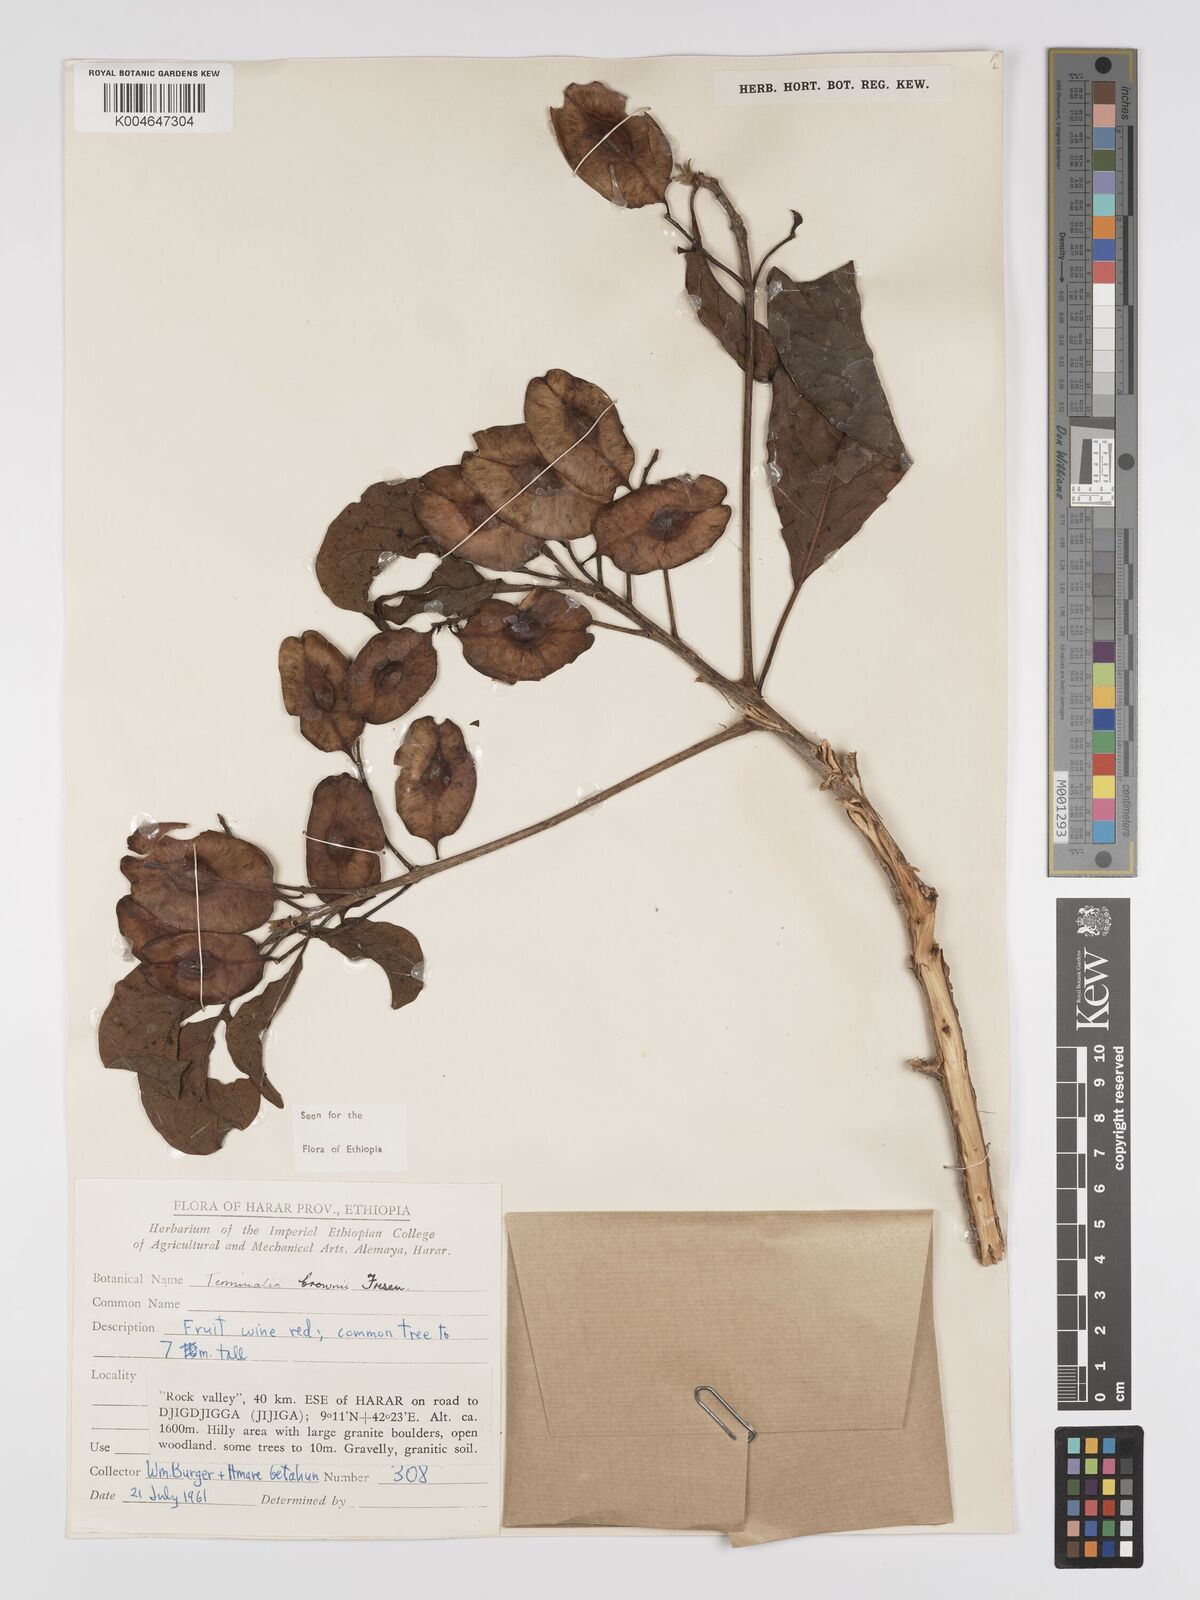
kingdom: Plantae
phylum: Tracheophyta
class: Magnoliopsida
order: Myrtales
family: Combretaceae
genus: Terminalia
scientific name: Terminalia brownii
